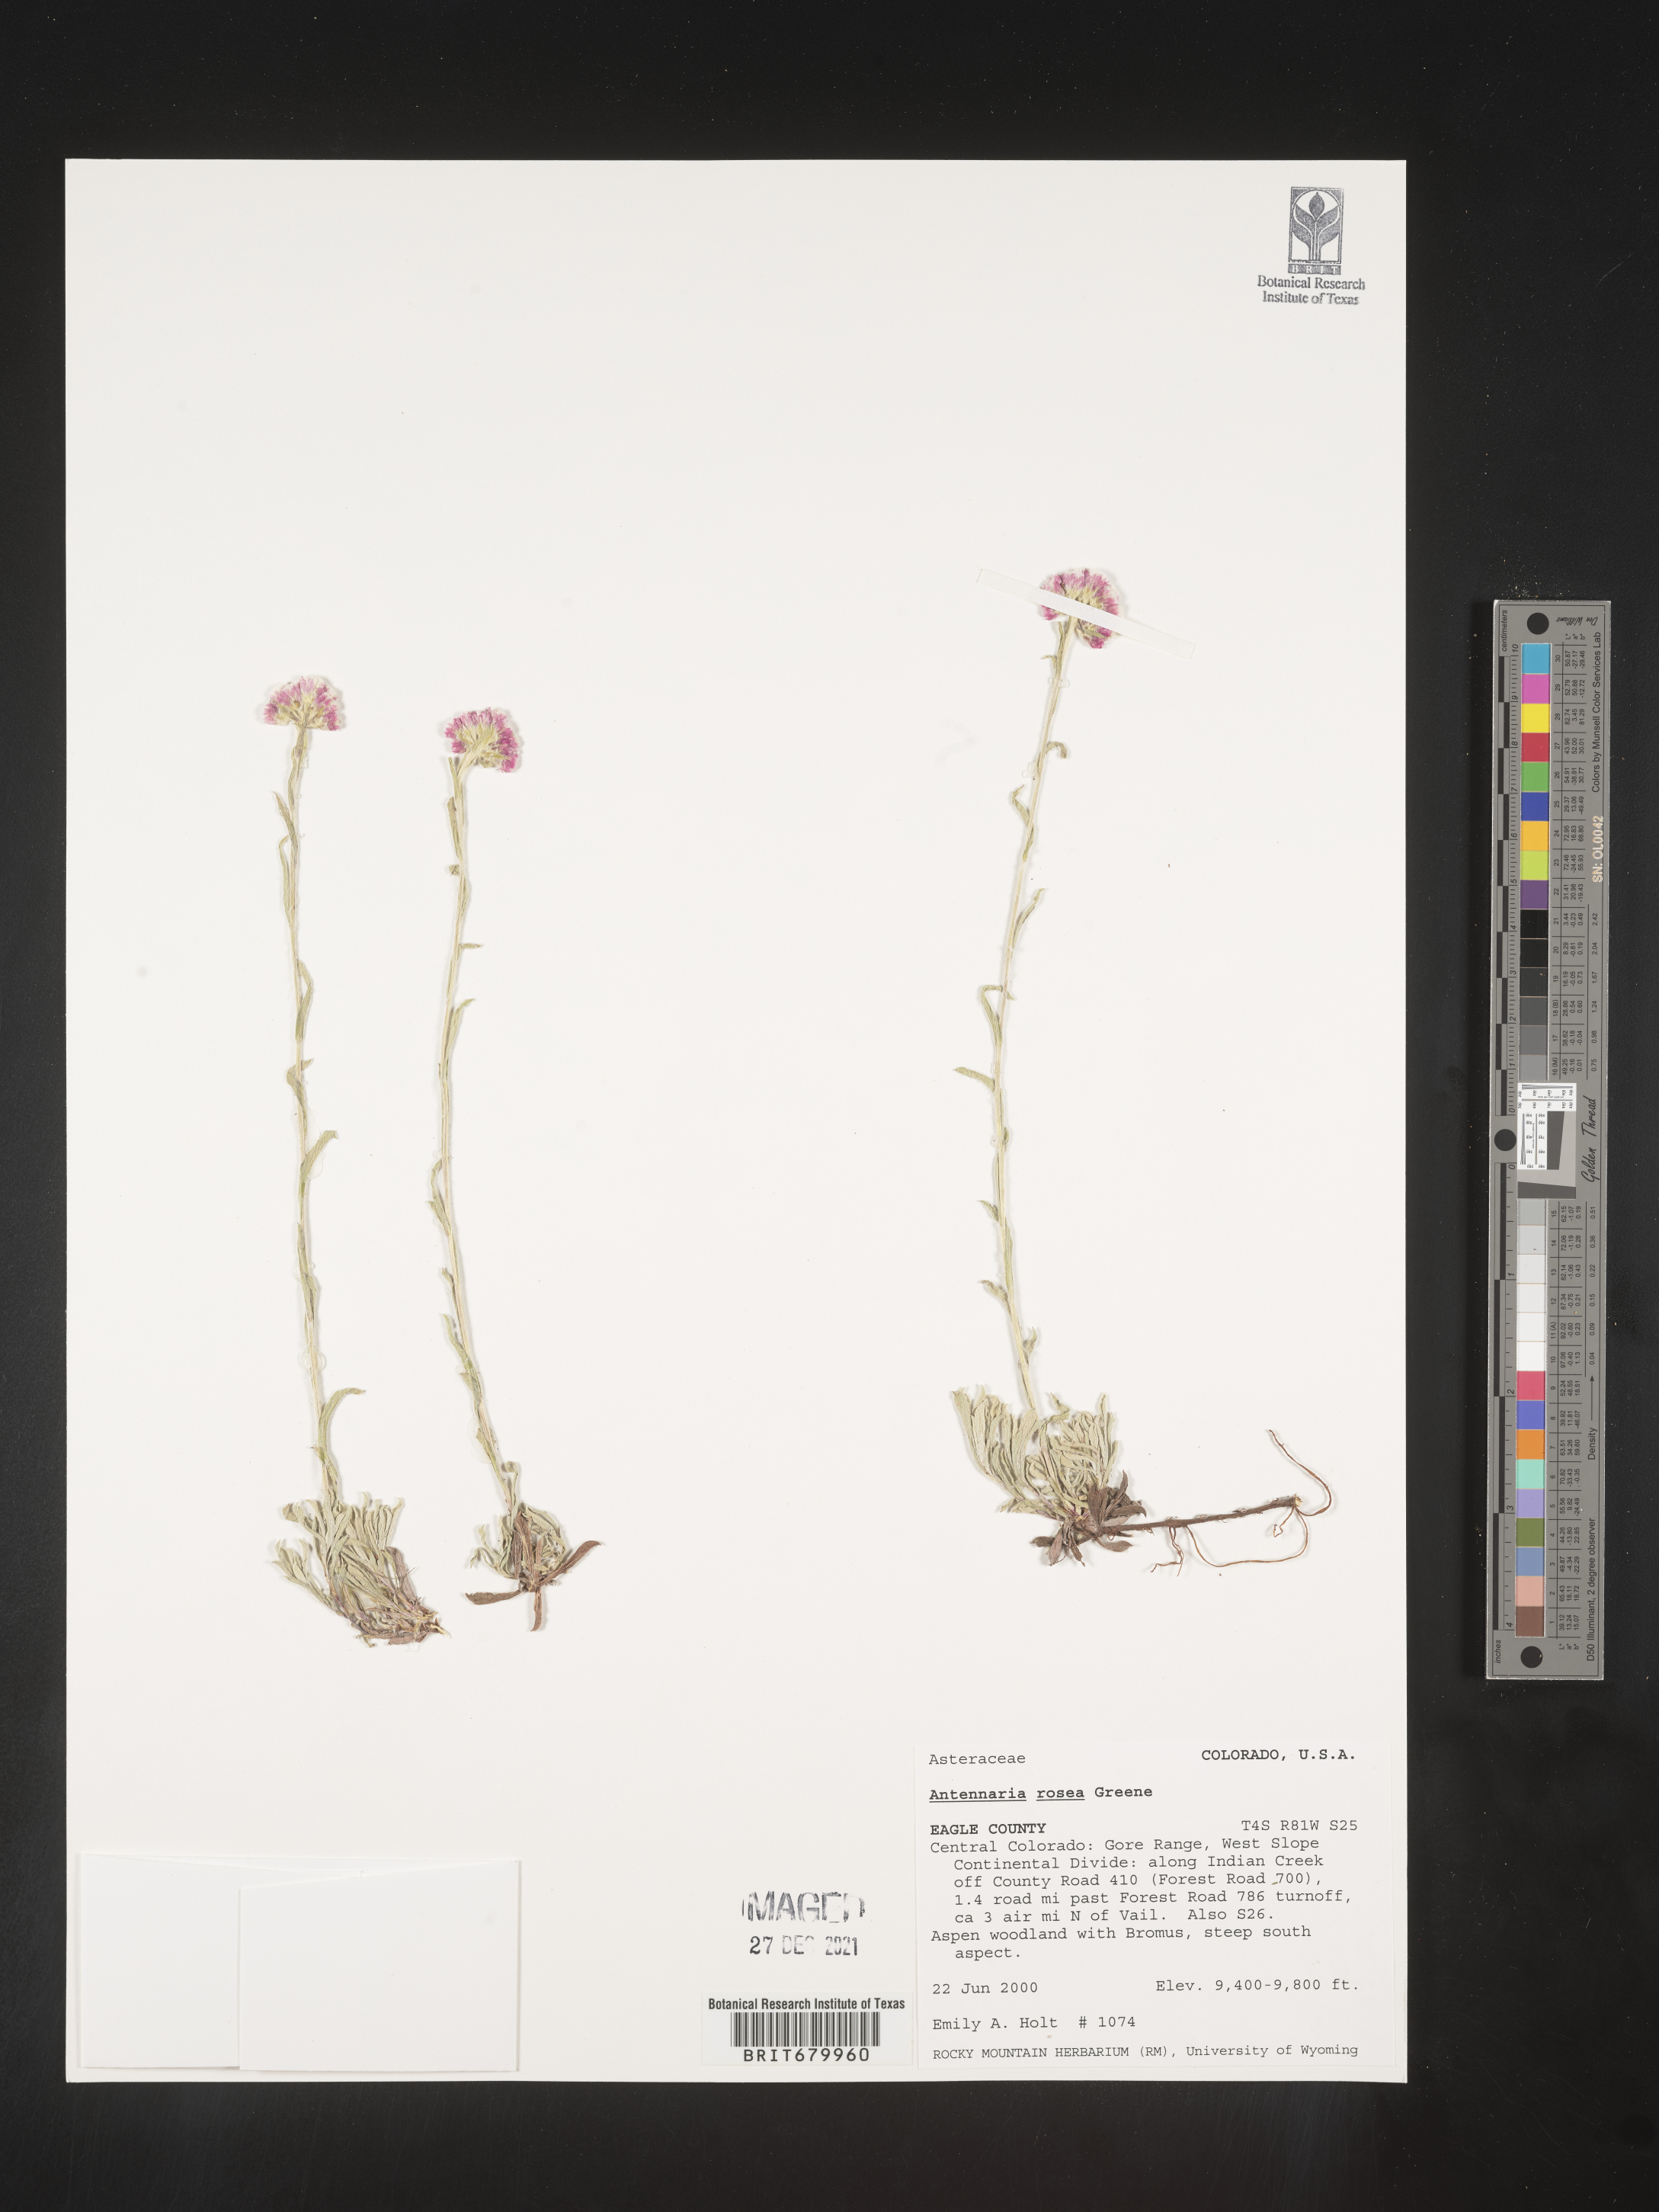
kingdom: Plantae
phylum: Tracheophyta
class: Magnoliopsida
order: Asterales
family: Asteraceae
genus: Antennaria
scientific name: Antennaria rosea
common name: Rosy pussytoes
